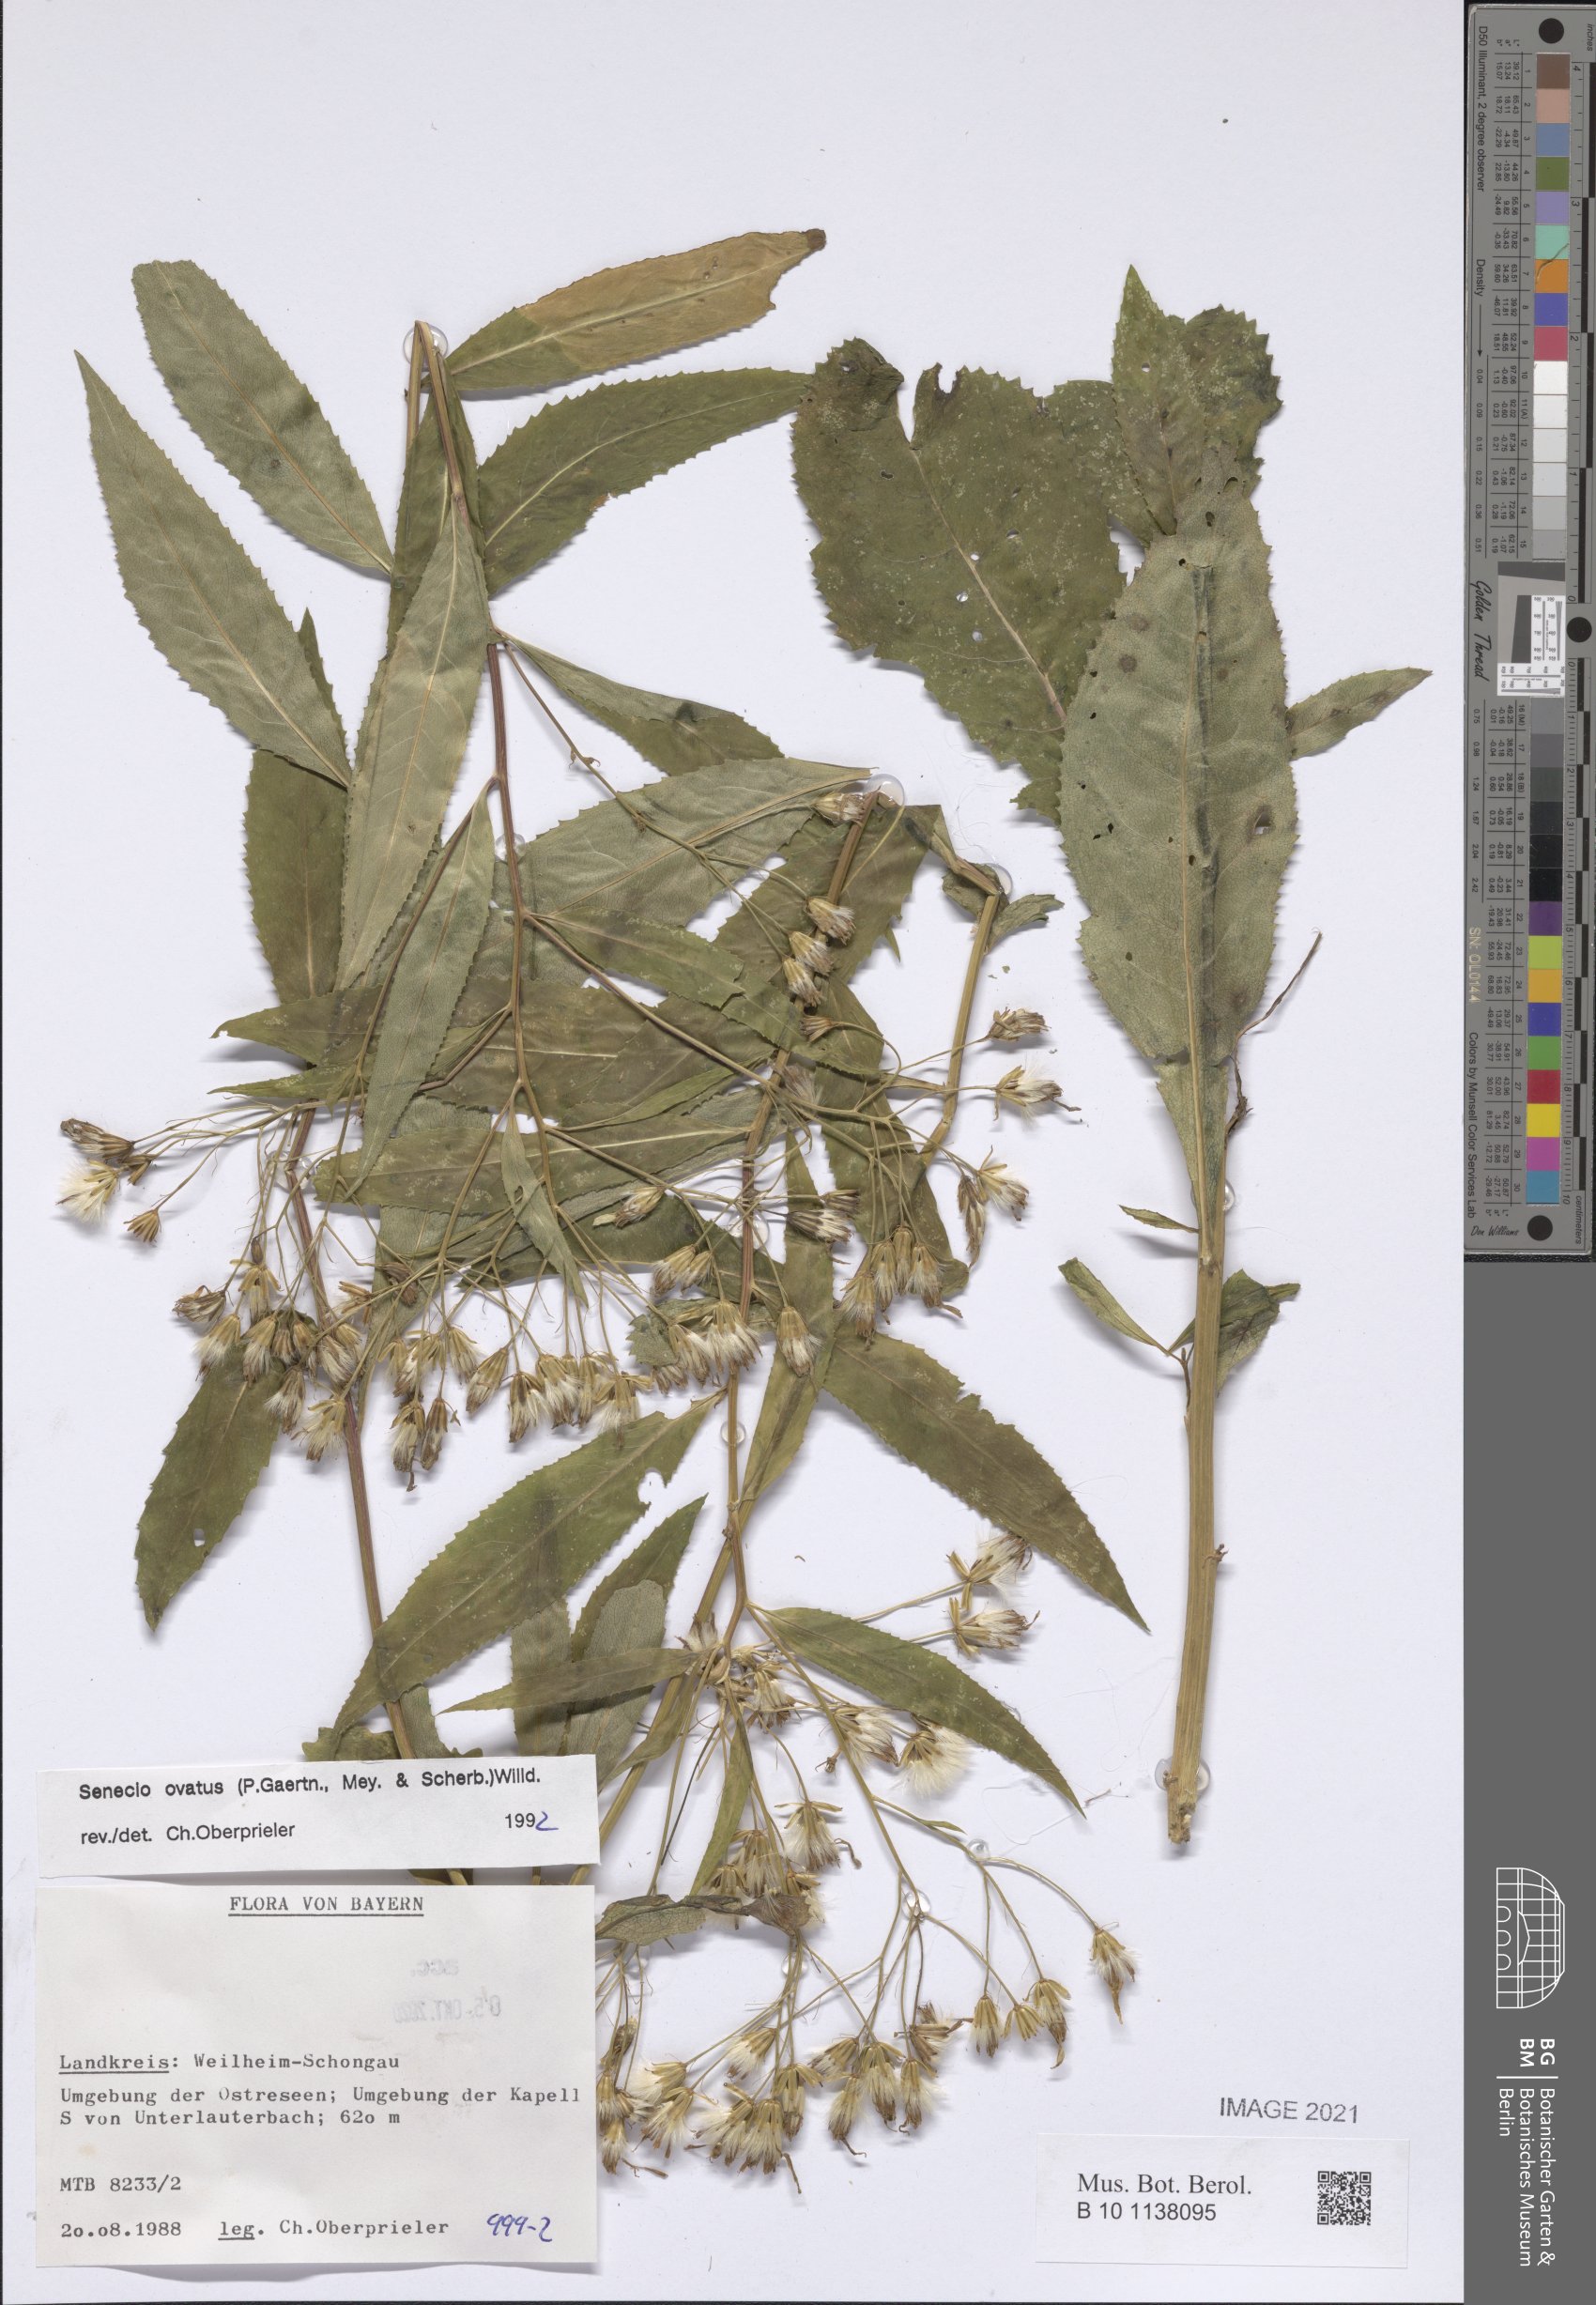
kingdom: Plantae
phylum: Tracheophyta
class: Magnoliopsida
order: Asterales
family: Asteraceae
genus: Senecio
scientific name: Senecio ovatus
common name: Wood ragwort
